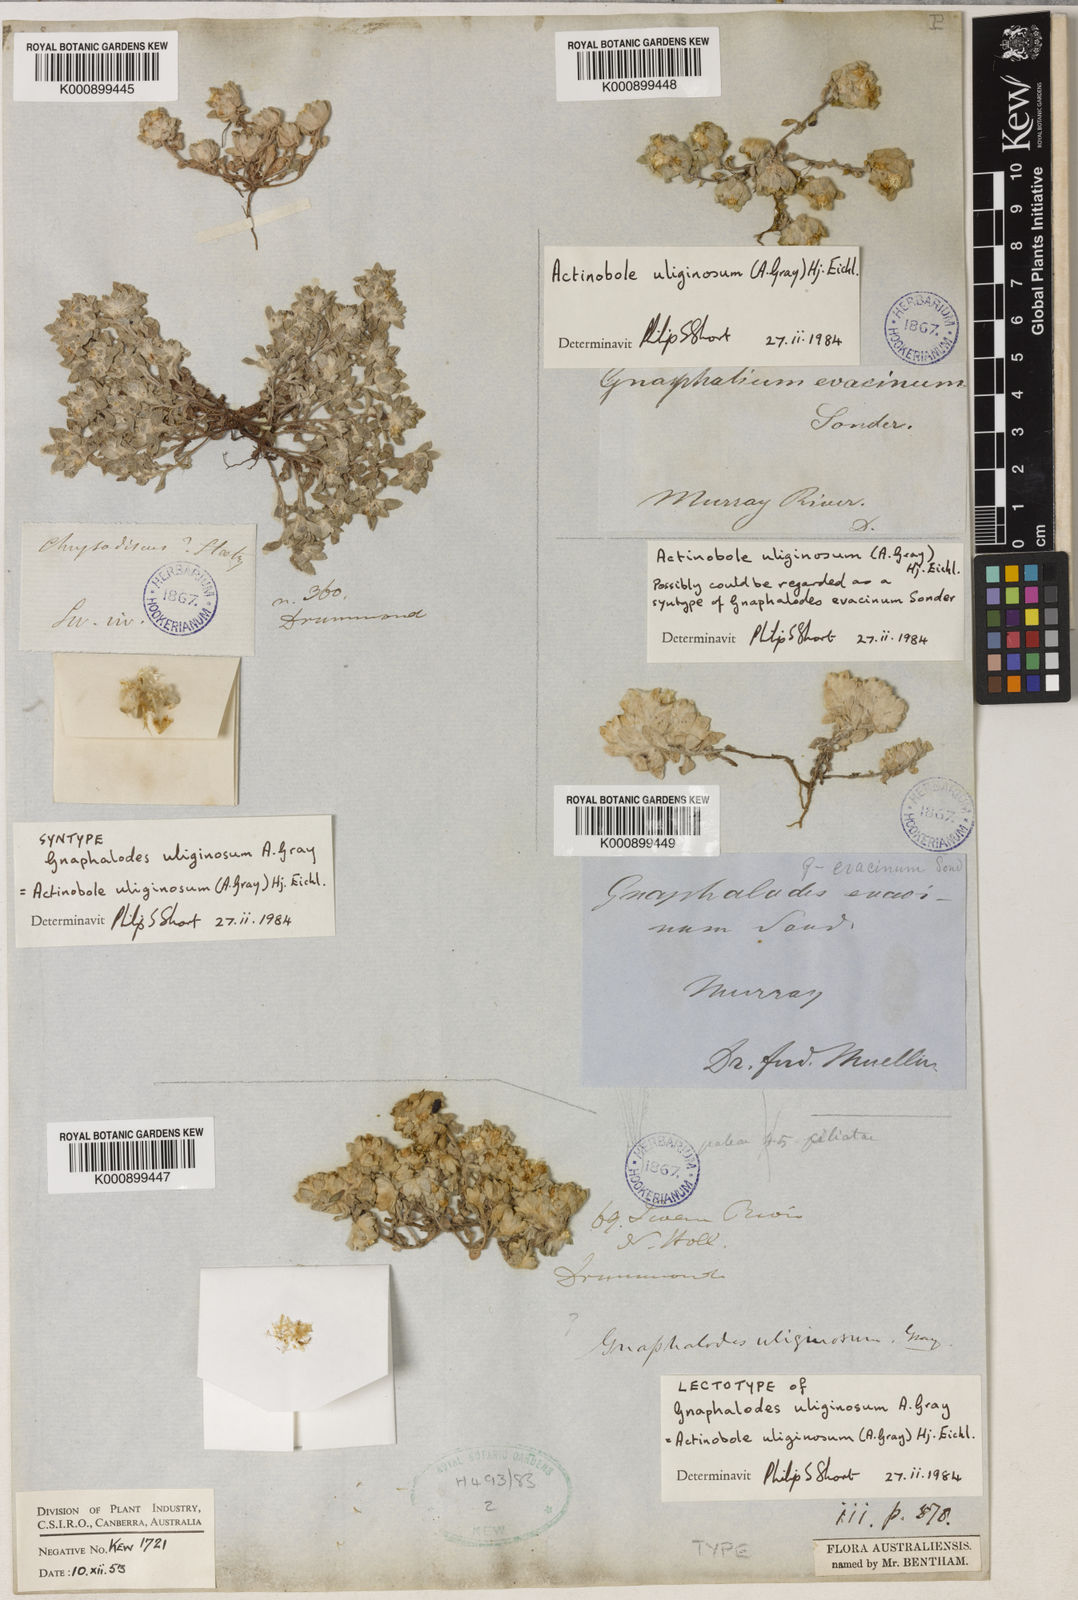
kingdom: Plantae
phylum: Tracheophyta
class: Magnoliopsida
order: Asterales
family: Asteraceae
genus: Actinobole
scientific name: Actinobole uliginosum
